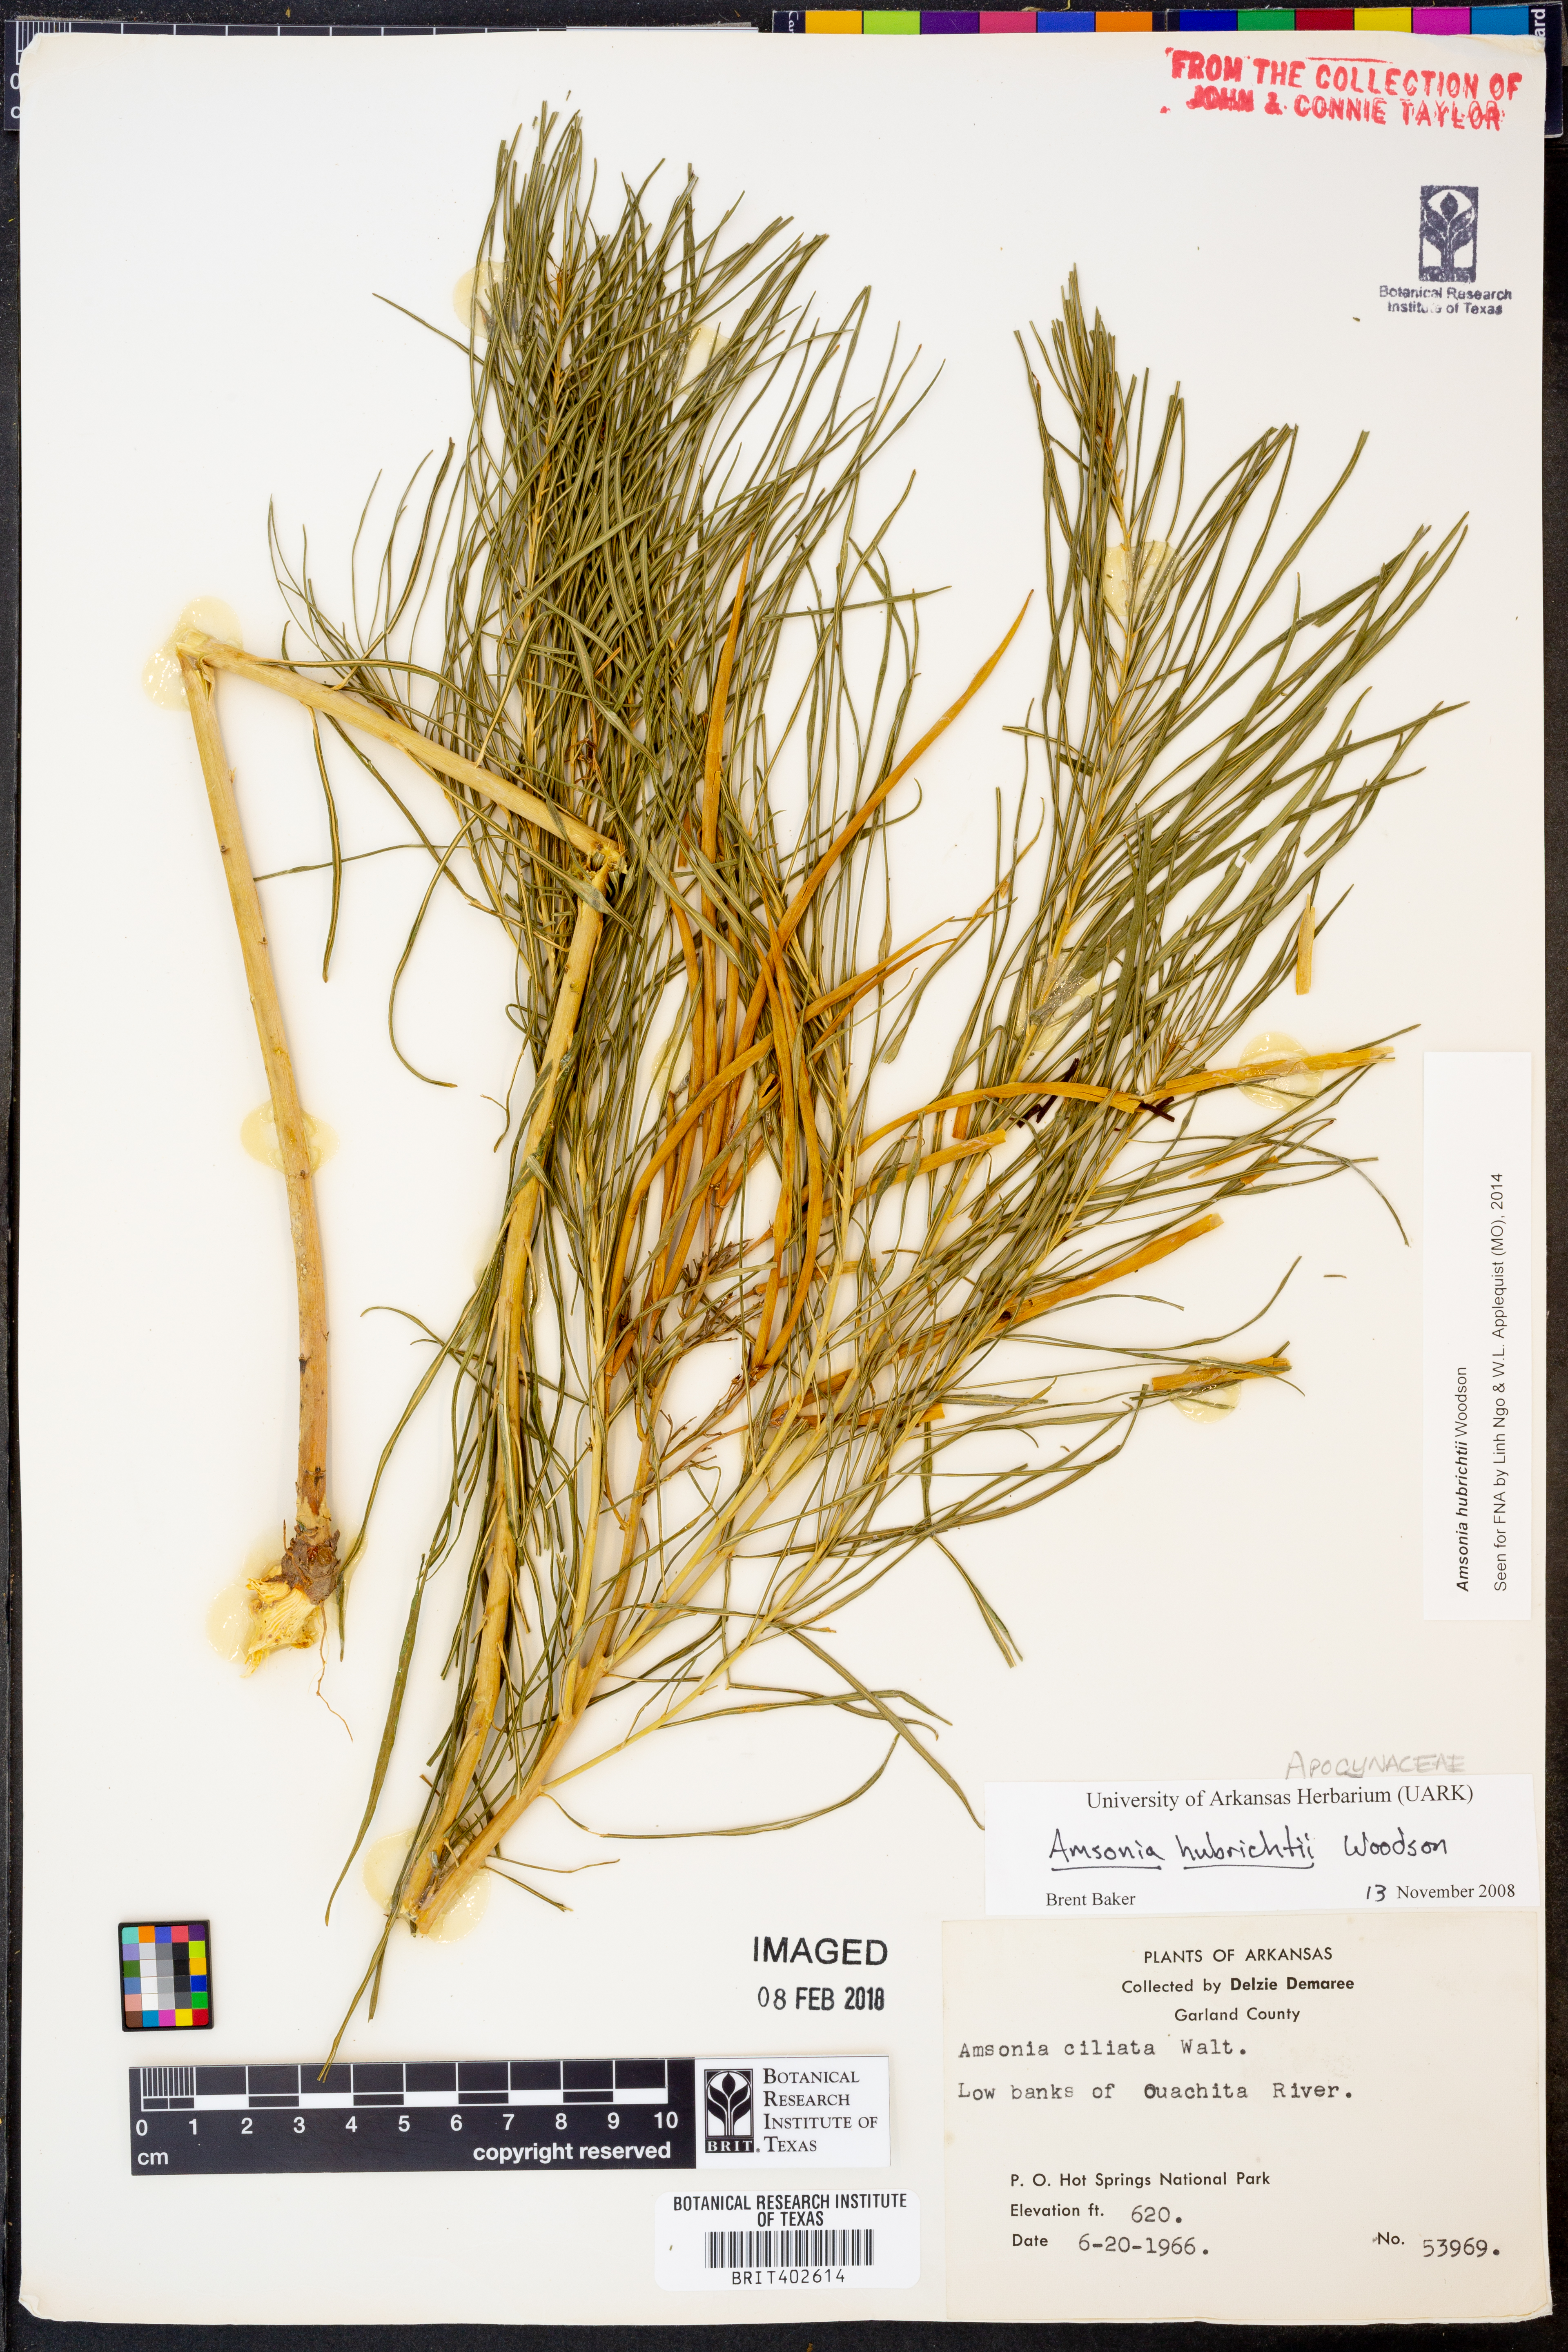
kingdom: Plantae
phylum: Tracheophyta
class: Magnoliopsida
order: Gentianales
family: Apocynaceae
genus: Amsonia
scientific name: Amsonia hubrichtii
